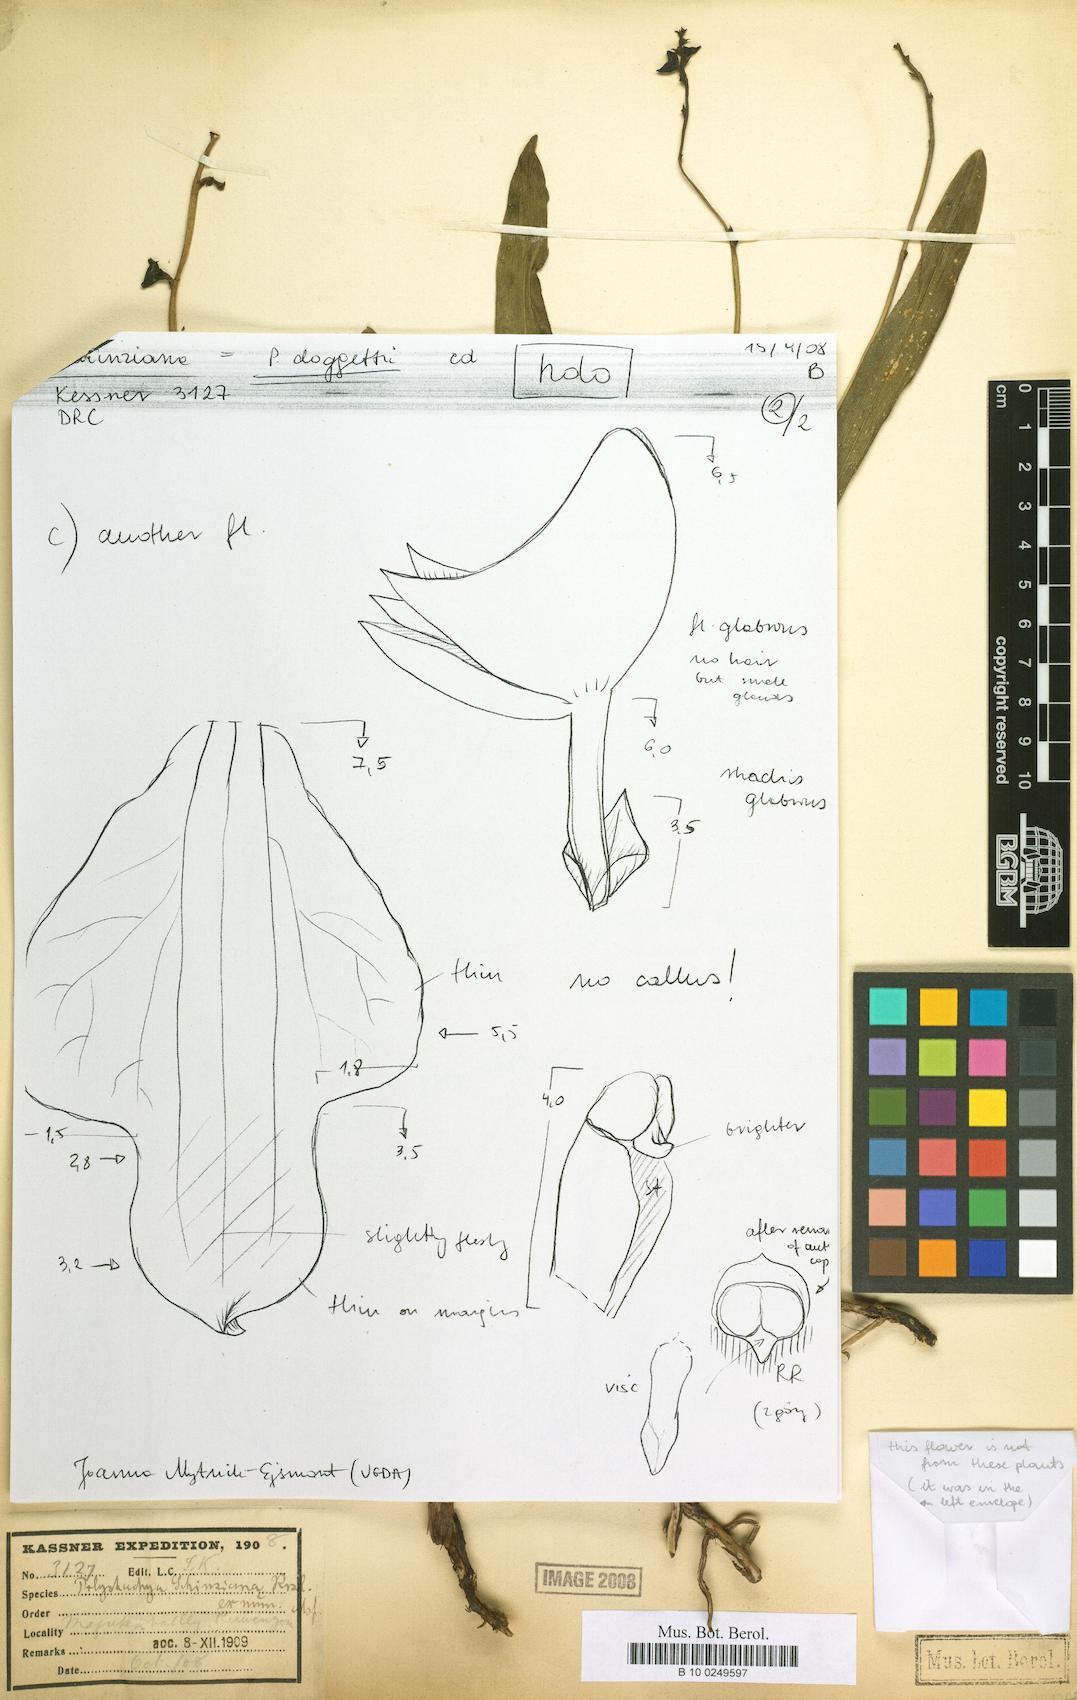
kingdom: Plantae
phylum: Tracheophyta
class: Liliopsida
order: Asparagales
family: Orchidaceae
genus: Polystachya
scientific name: Polystachya doggettii
